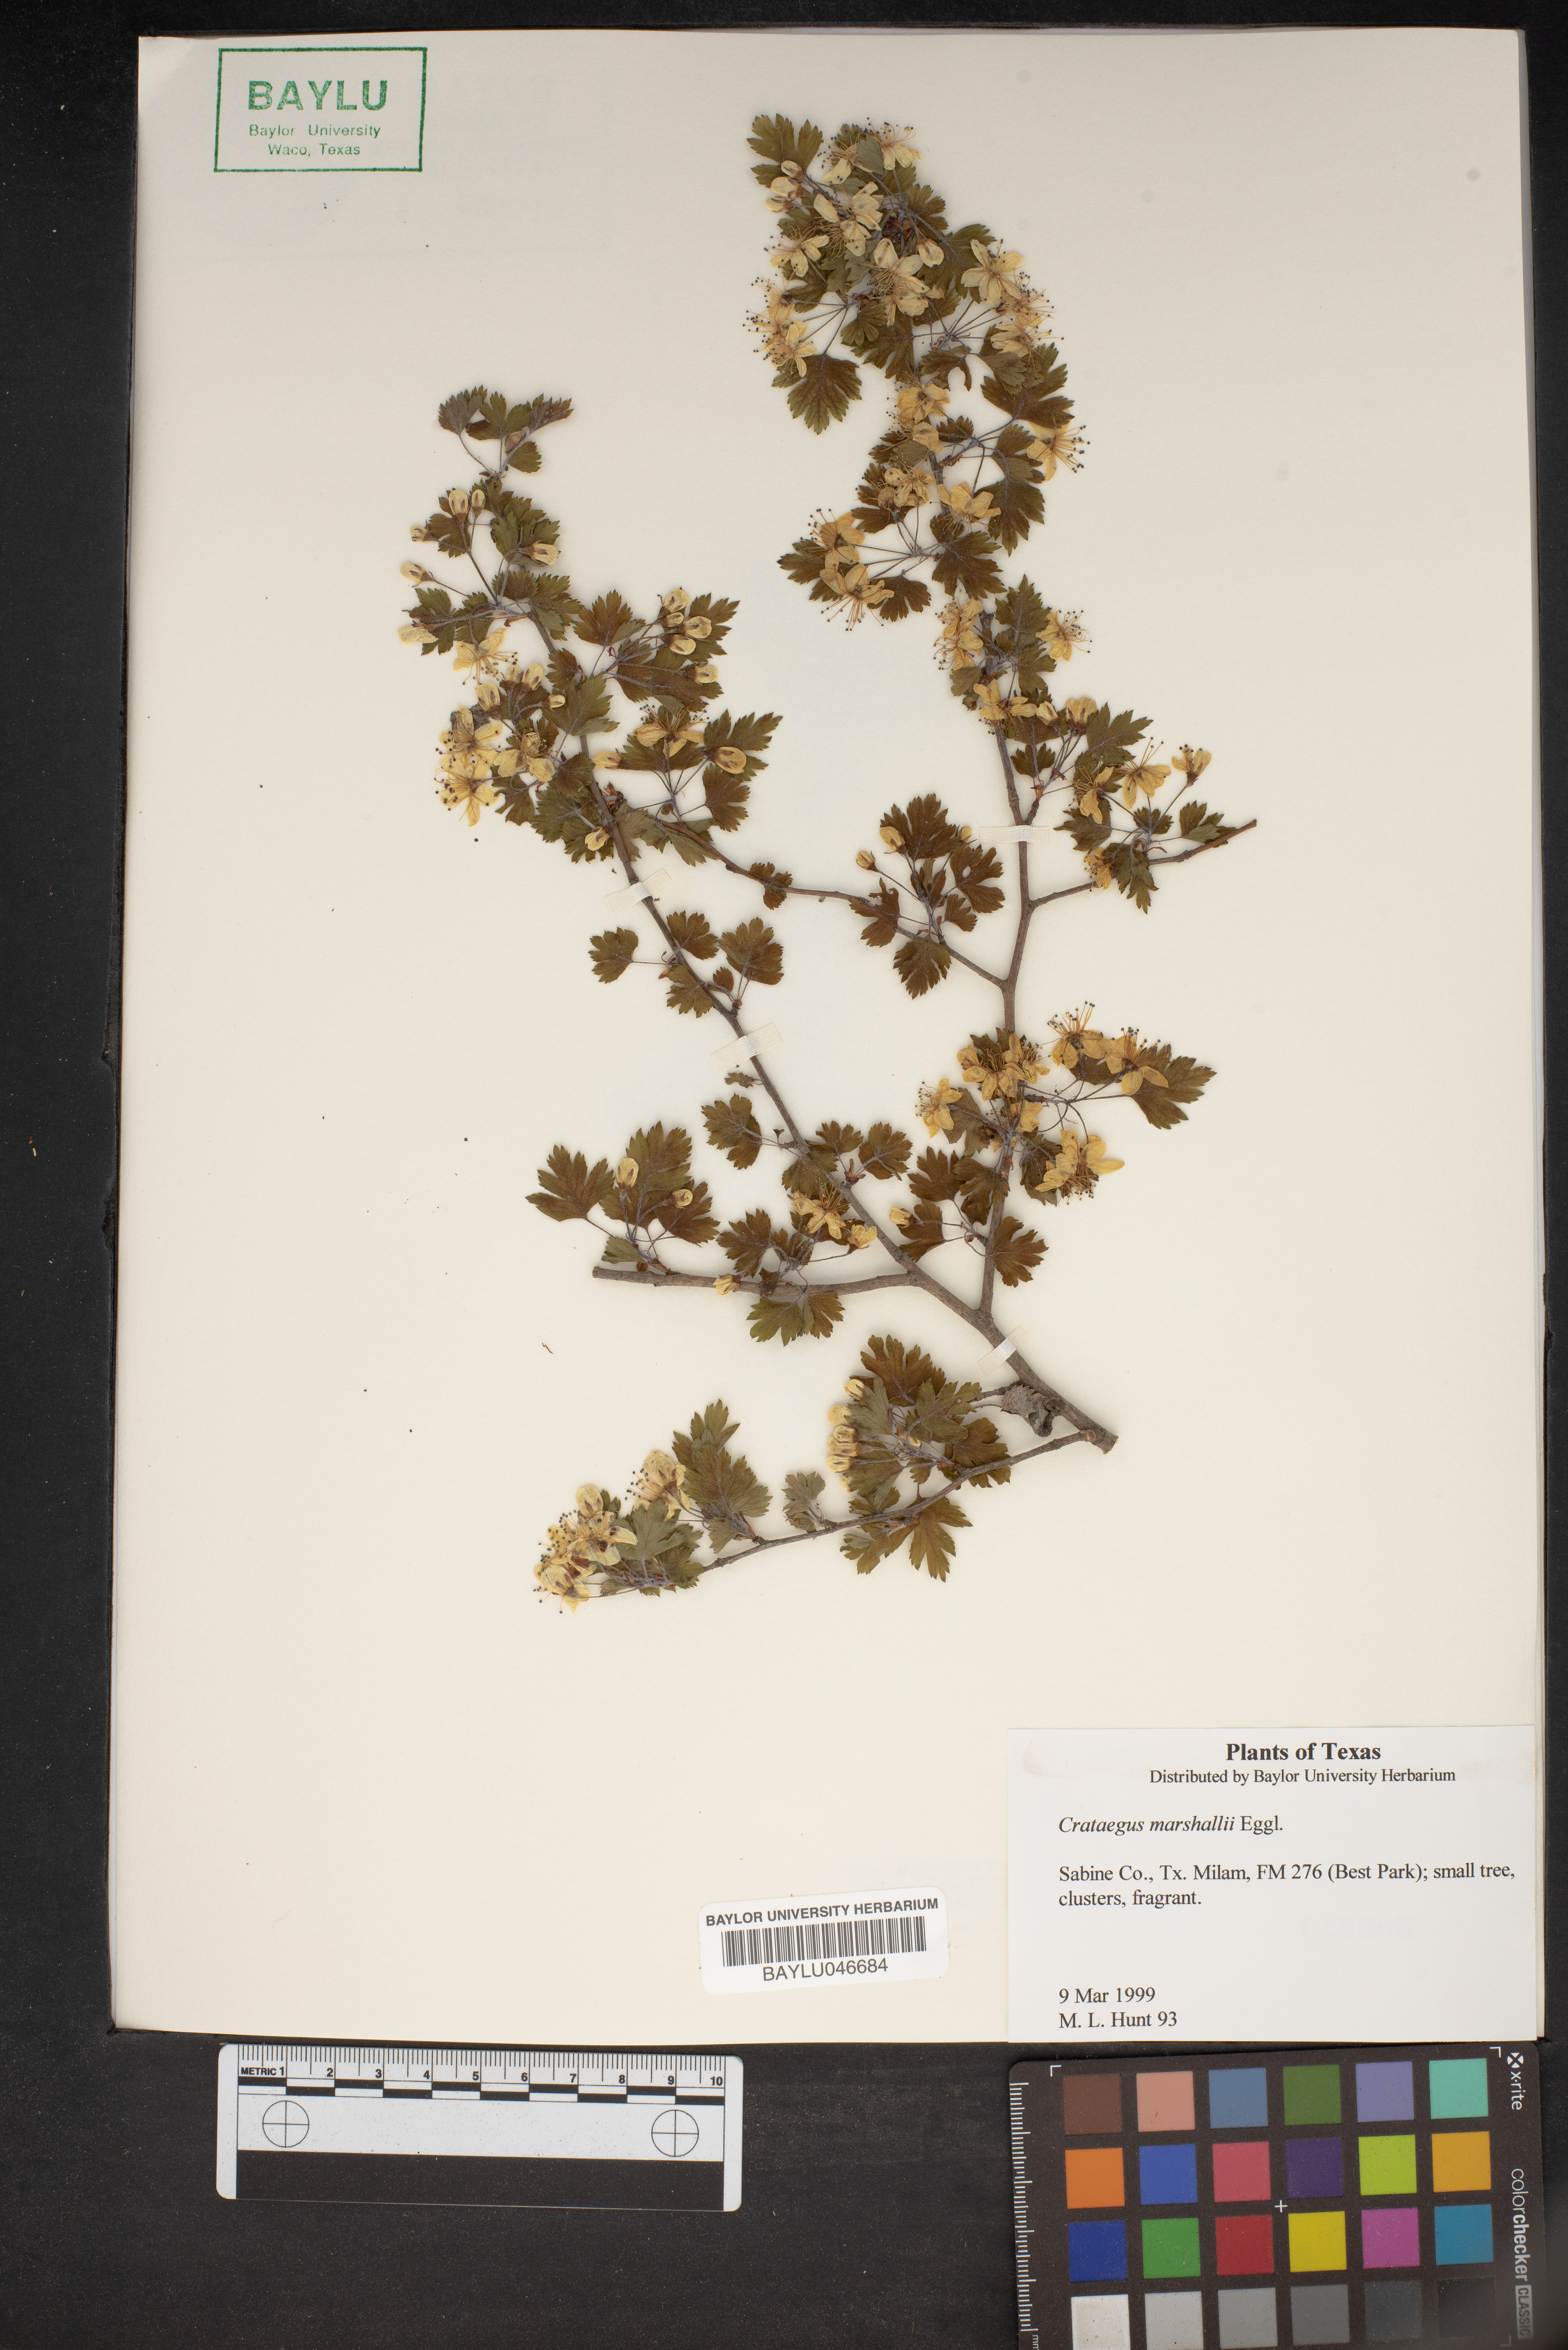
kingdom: Plantae
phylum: Tracheophyta
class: Magnoliopsida
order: Rosales
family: Rosaceae
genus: Crataegus
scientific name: Crataegus marshallii
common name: Parsley-hawthorn
